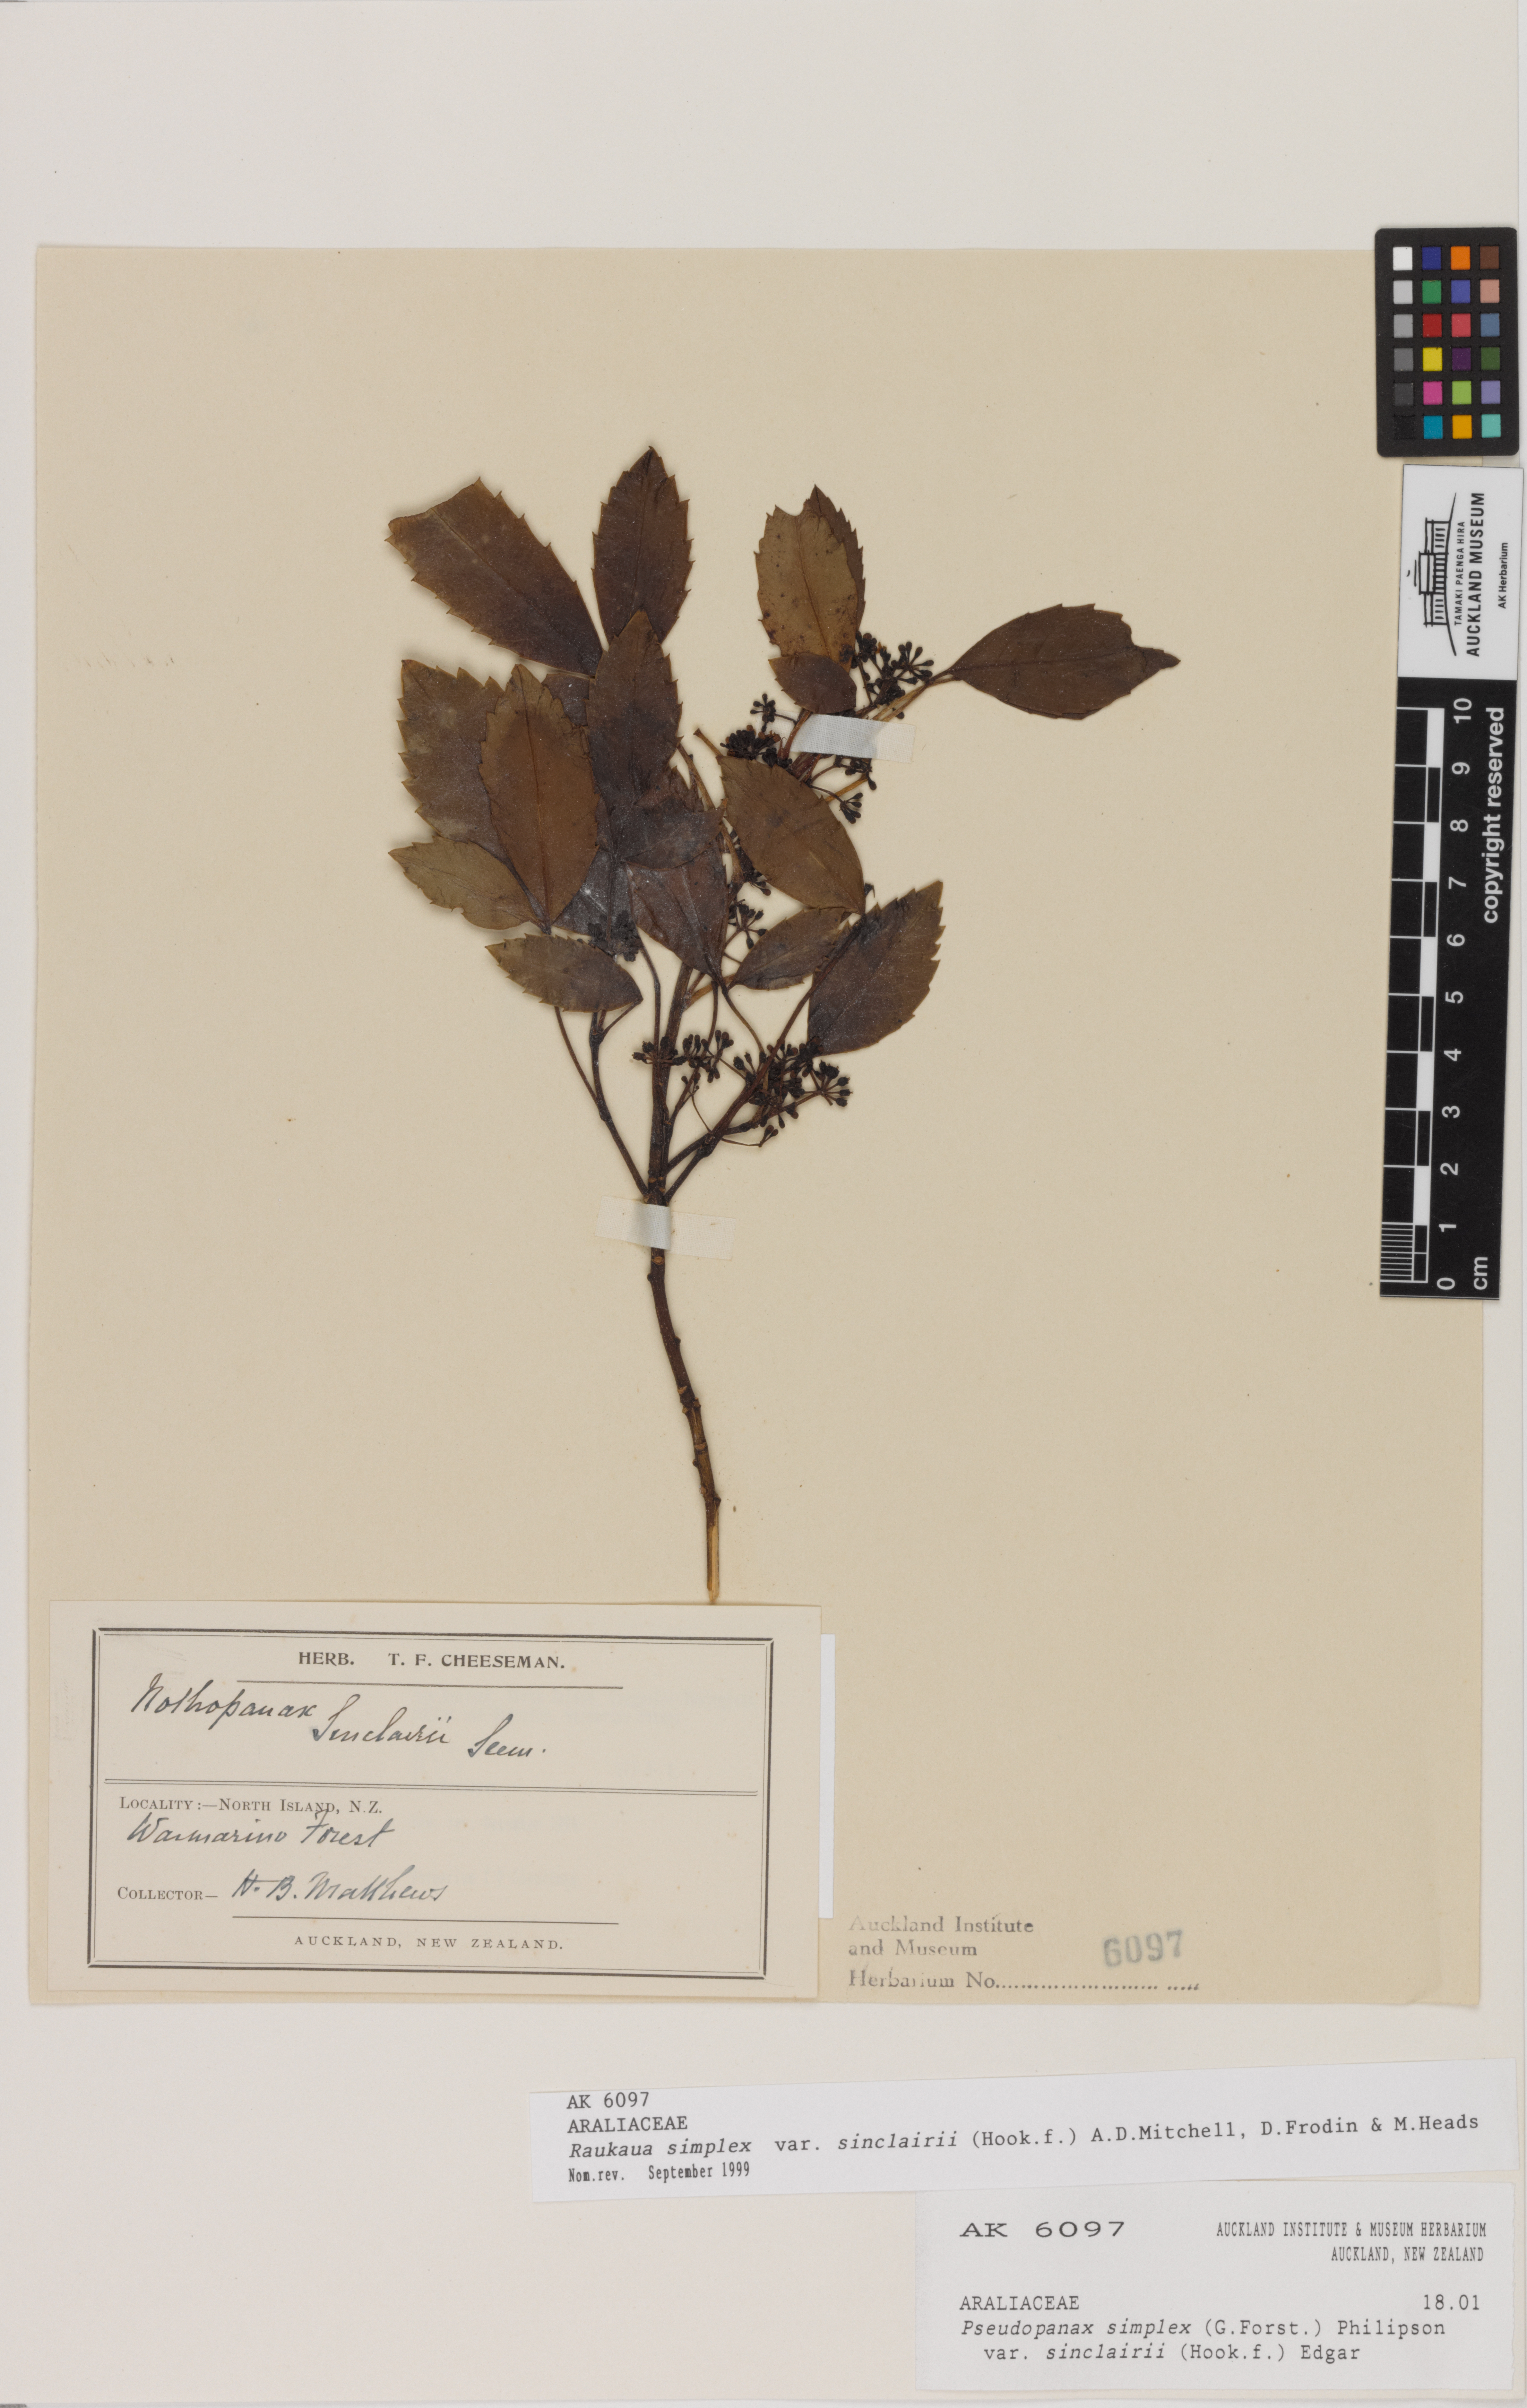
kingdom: Plantae
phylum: Tracheophyta
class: Magnoliopsida
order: Apiales
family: Araliaceae
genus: Raukaua
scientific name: Raukaua simplex
